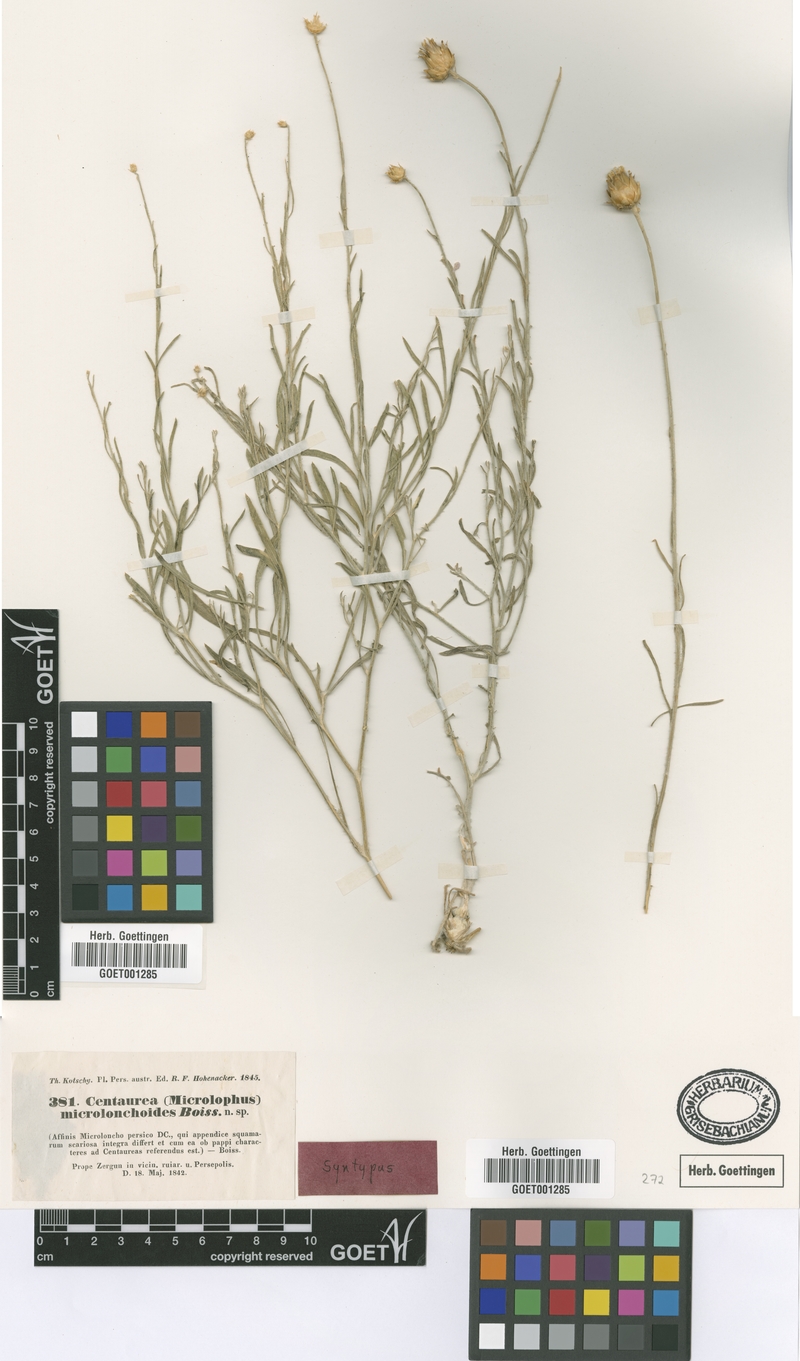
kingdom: Plantae
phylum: Tracheophyta
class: Magnoliopsida
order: Asterales
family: Asteraceae
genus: Centaurea
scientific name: Centaurea microlonchoides
